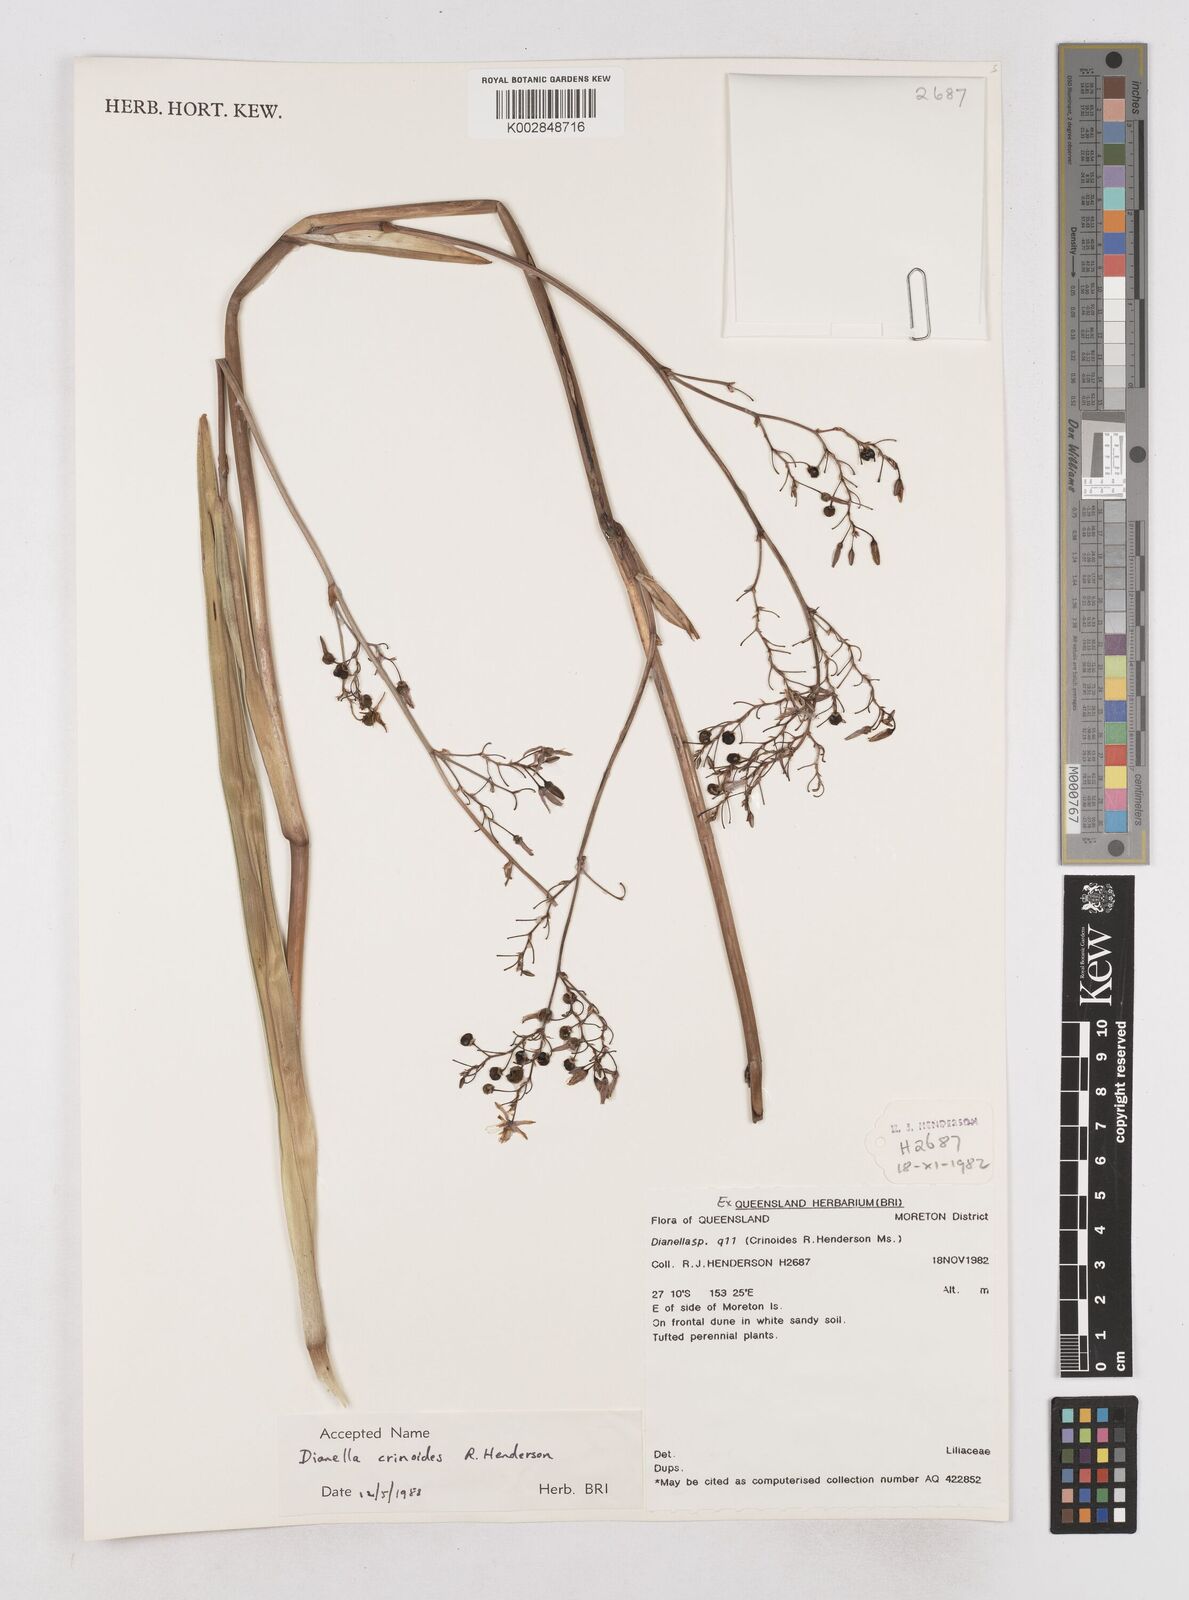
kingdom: Plantae
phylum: Tracheophyta
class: Liliopsida
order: Asparagales
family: Asphodelaceae
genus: Dianella
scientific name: Dianella crinoides
